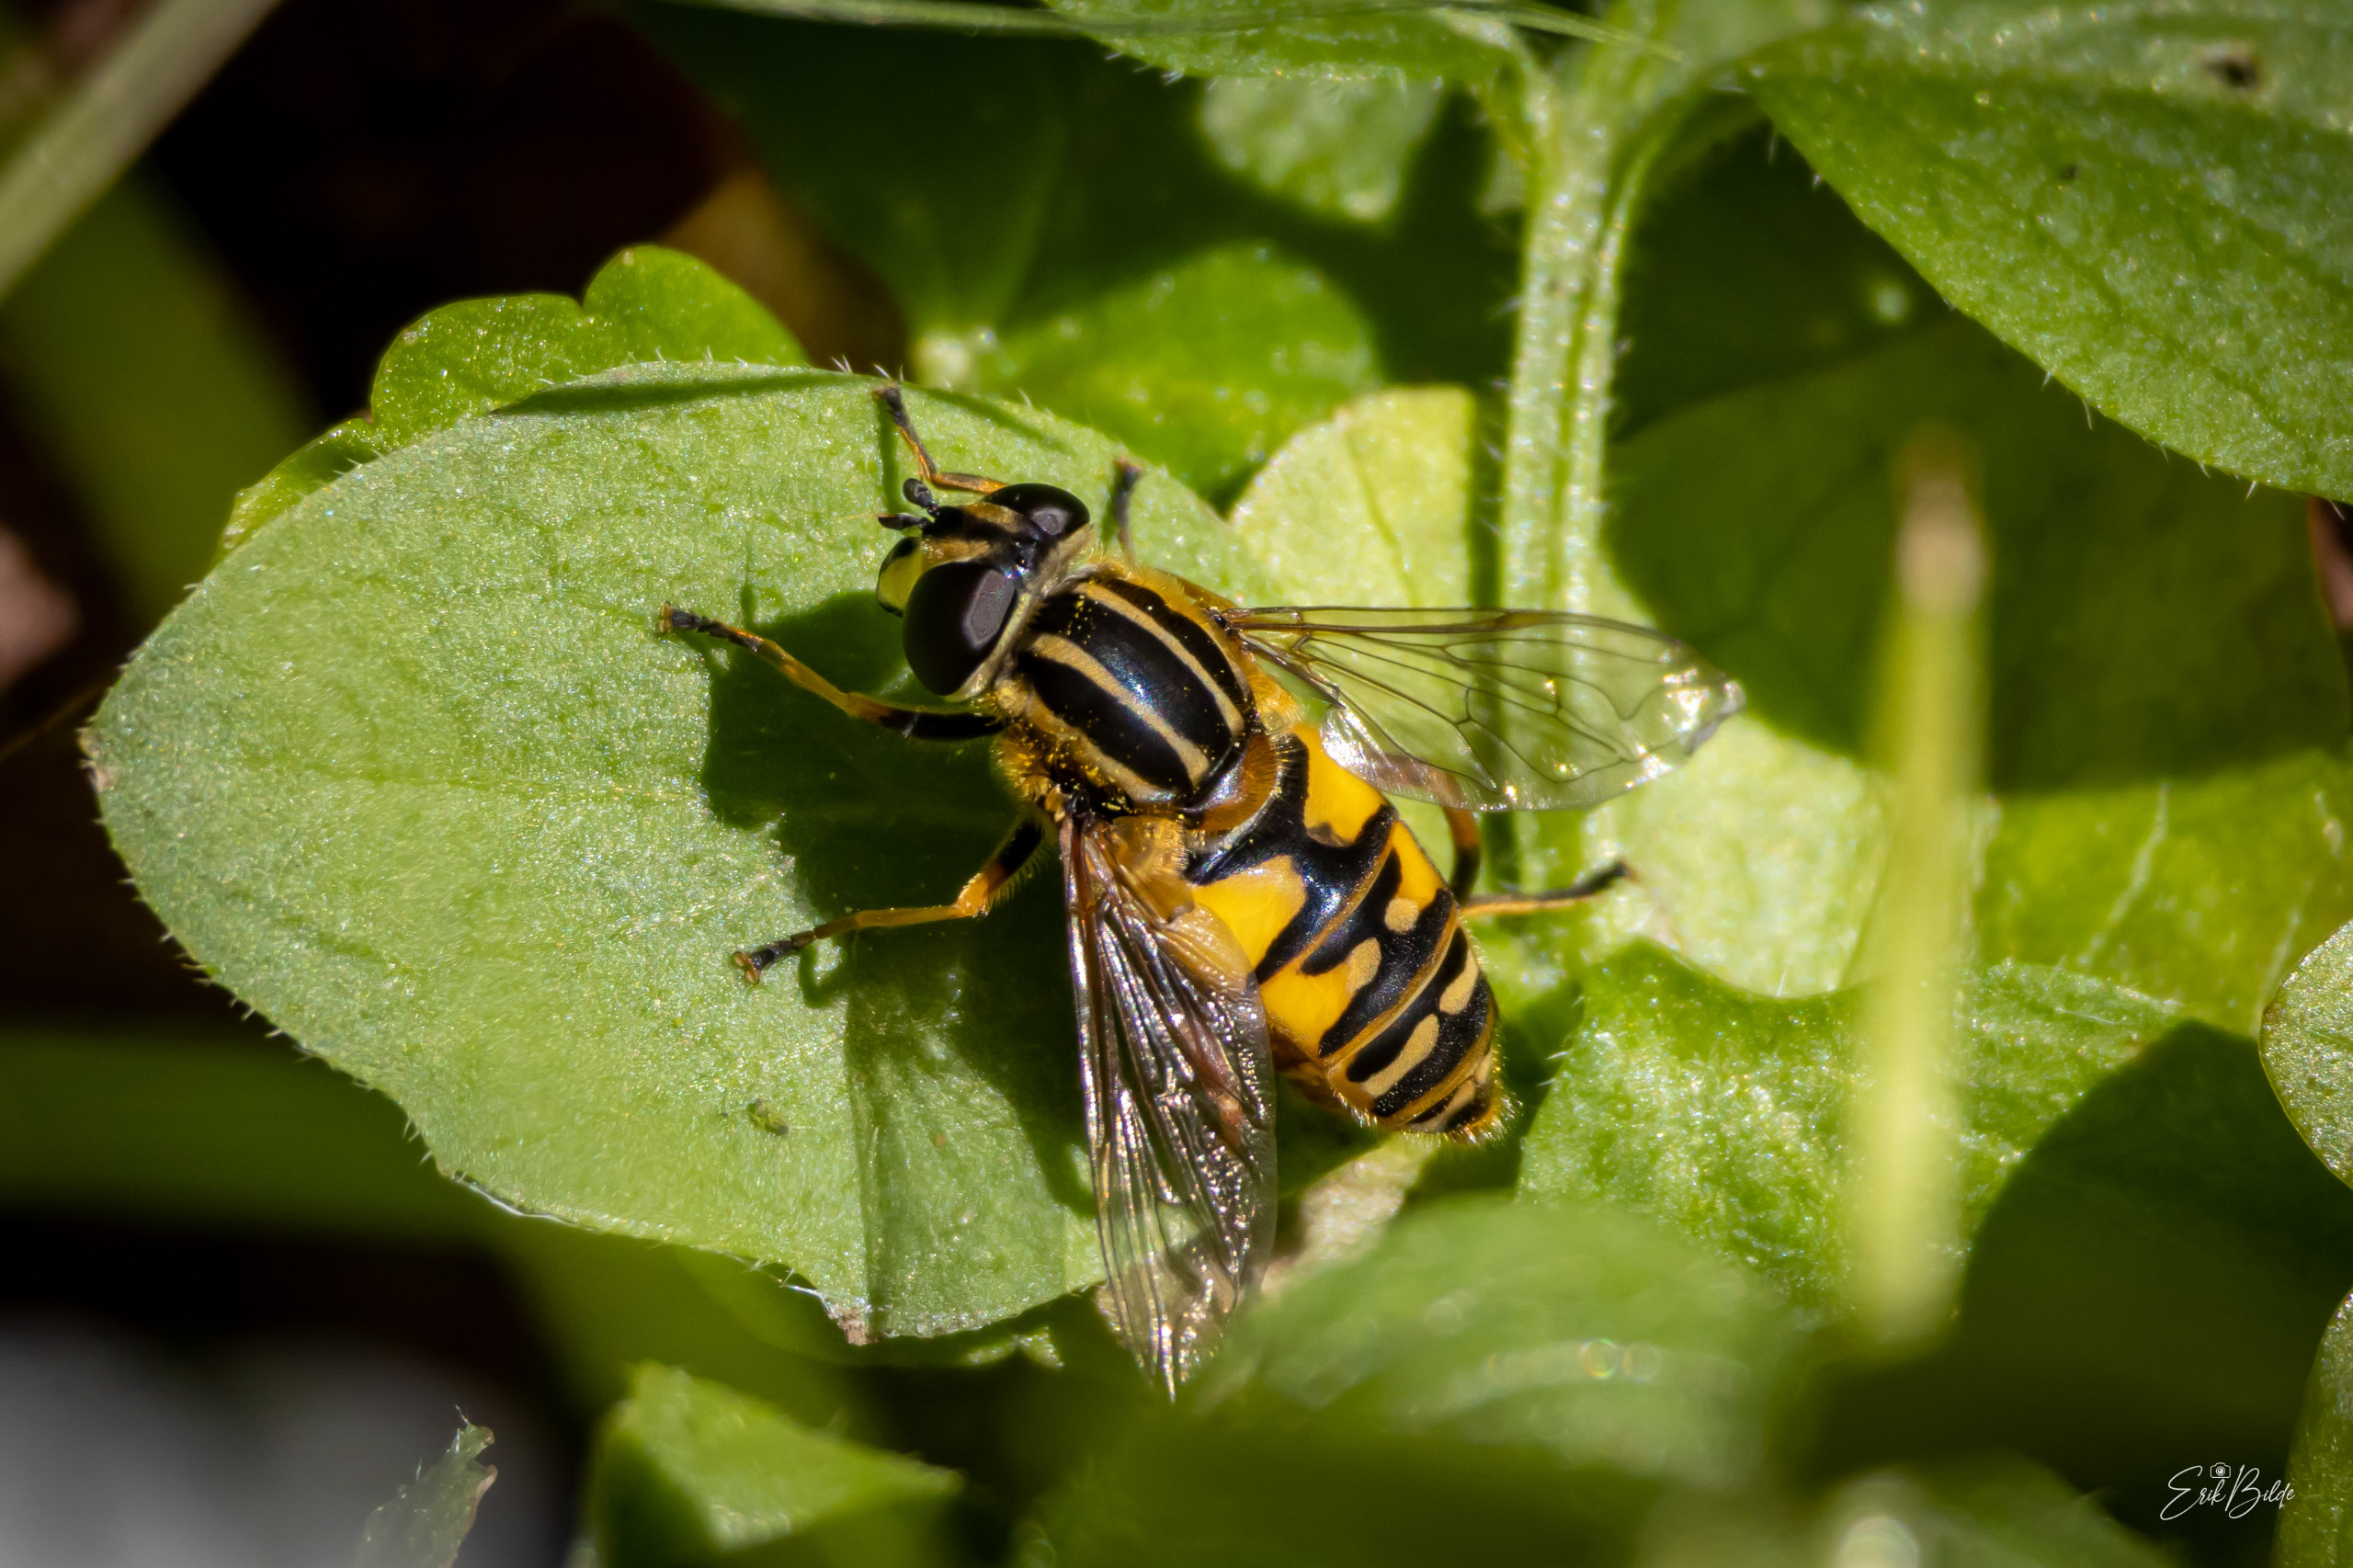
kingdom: Animalia
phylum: Arthropoda
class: Insecta
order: Diptera
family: Syrphidae
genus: Helophilus
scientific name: Helophilus pendulus
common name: Almindelig sumpsvirreflue
